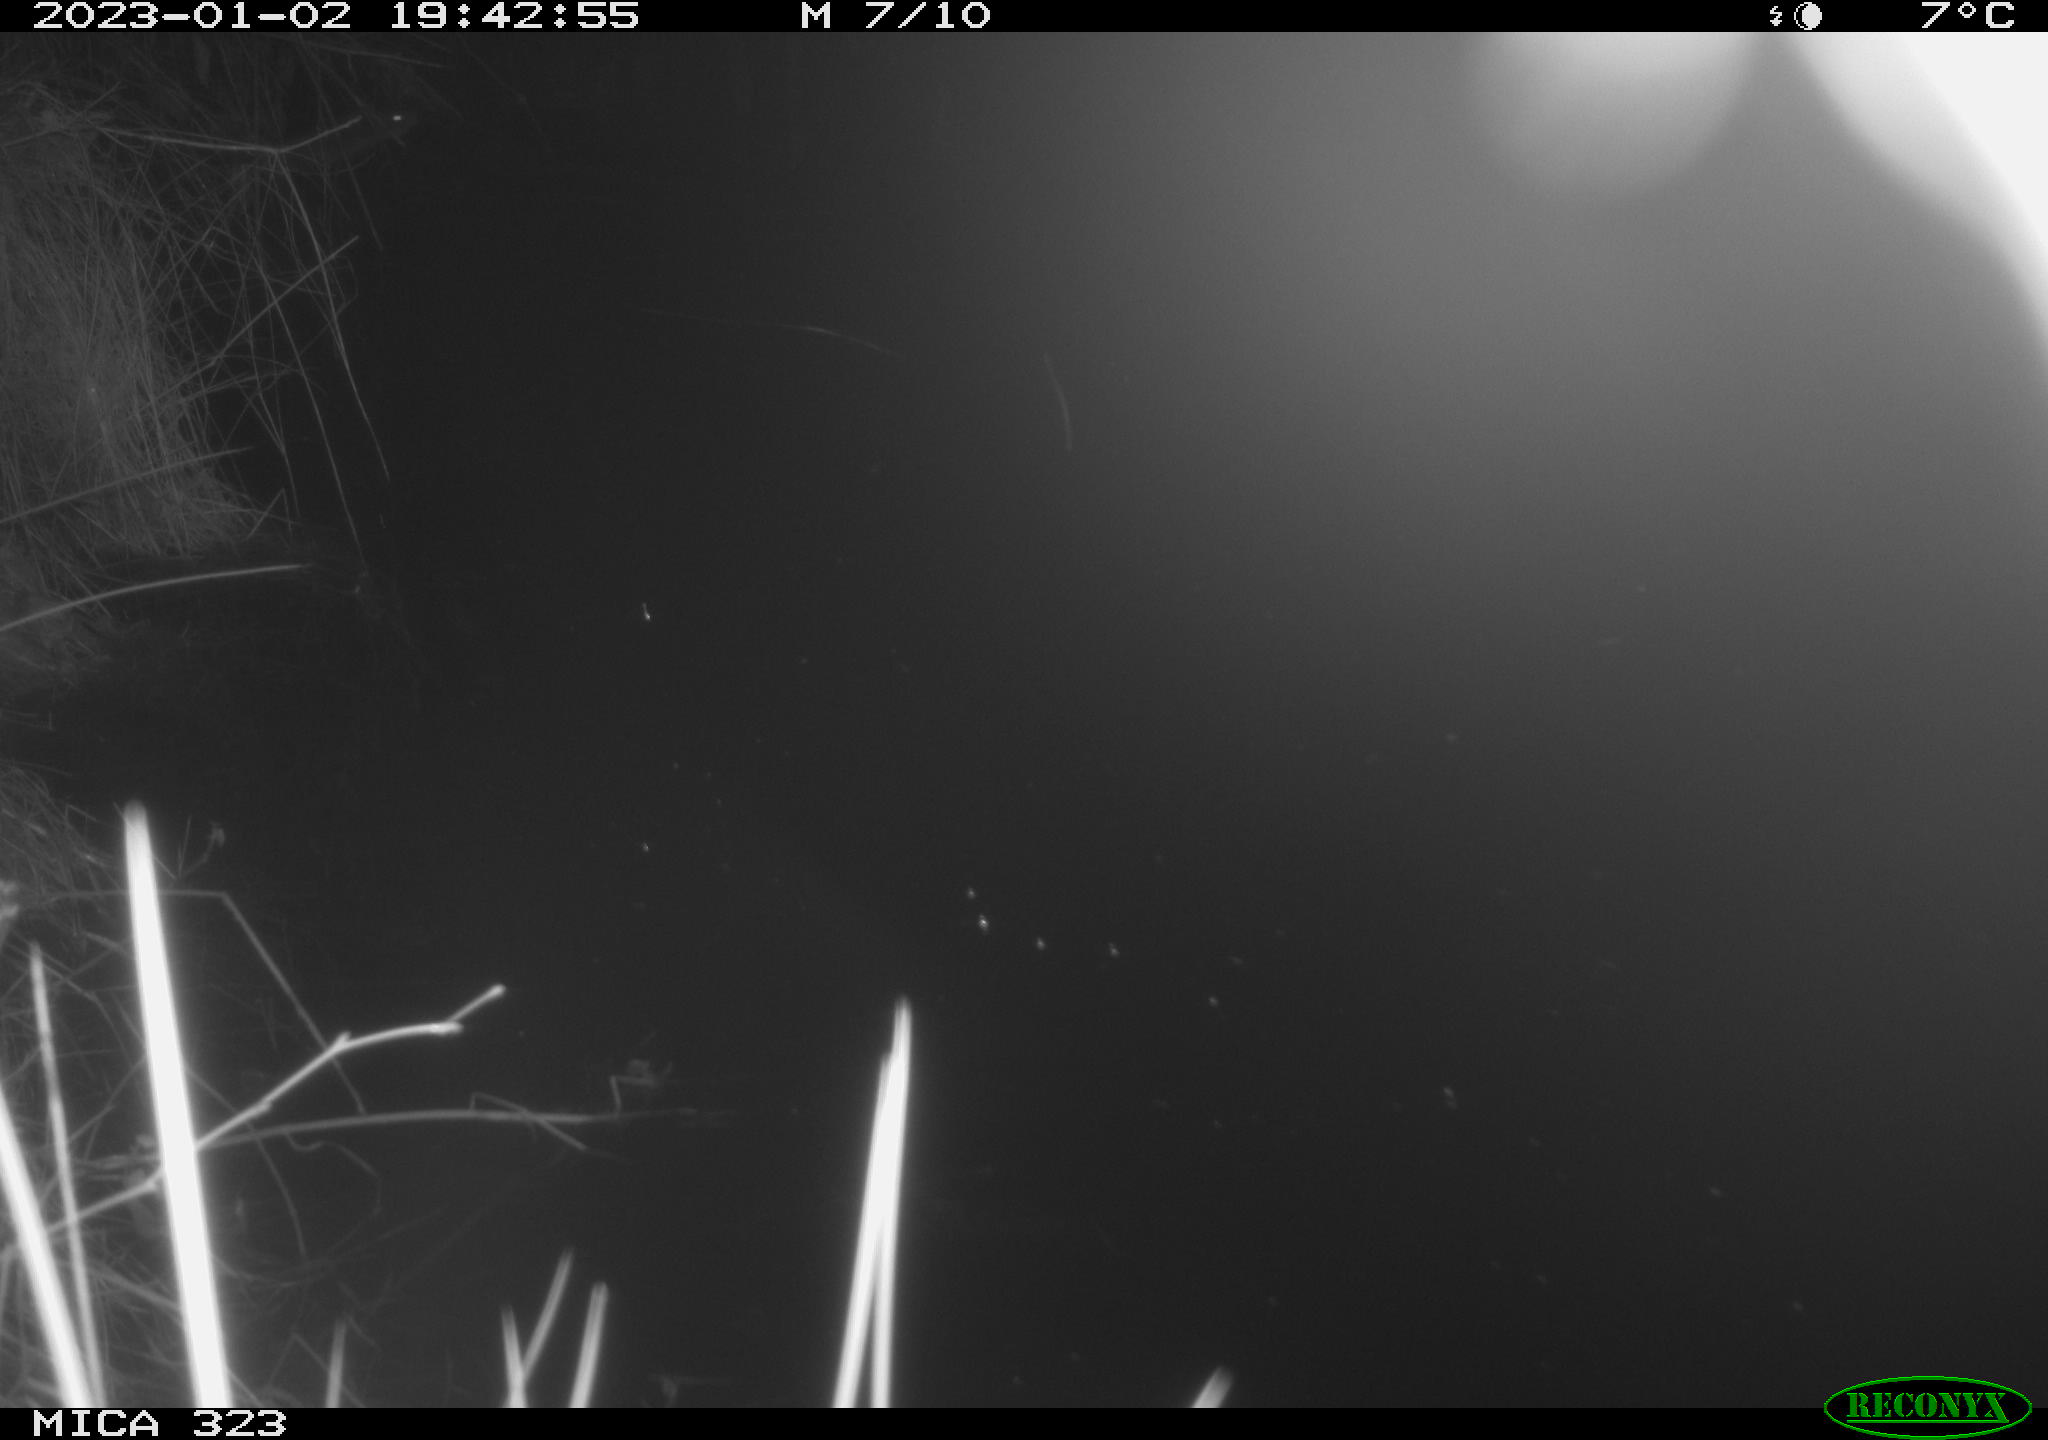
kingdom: Animalia
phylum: Chordata
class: Mammalia
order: Rodentia
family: Cricetidae
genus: Ondatra
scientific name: Ondatra zibethicus
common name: Muskrat
